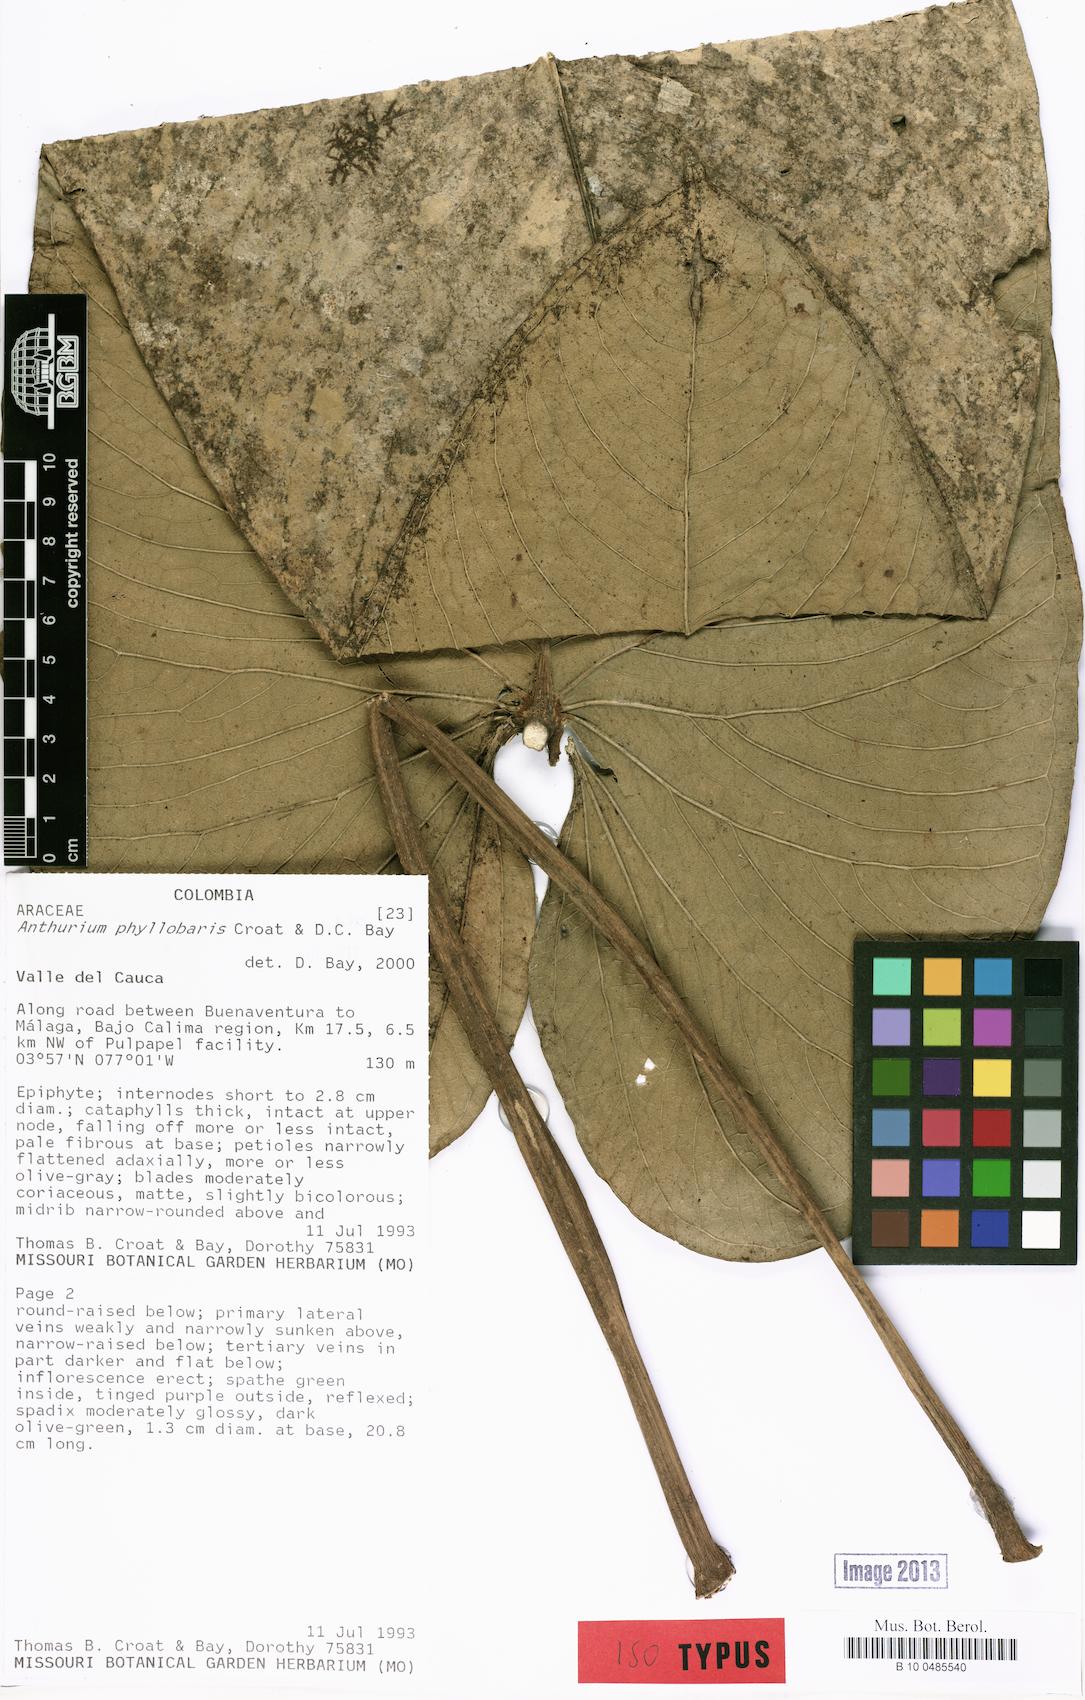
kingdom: Plantae
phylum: Tracheophyta
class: Liliopsida
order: Alismatales
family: Araceae
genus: Anthurium
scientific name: Anthurium phyllobaris
